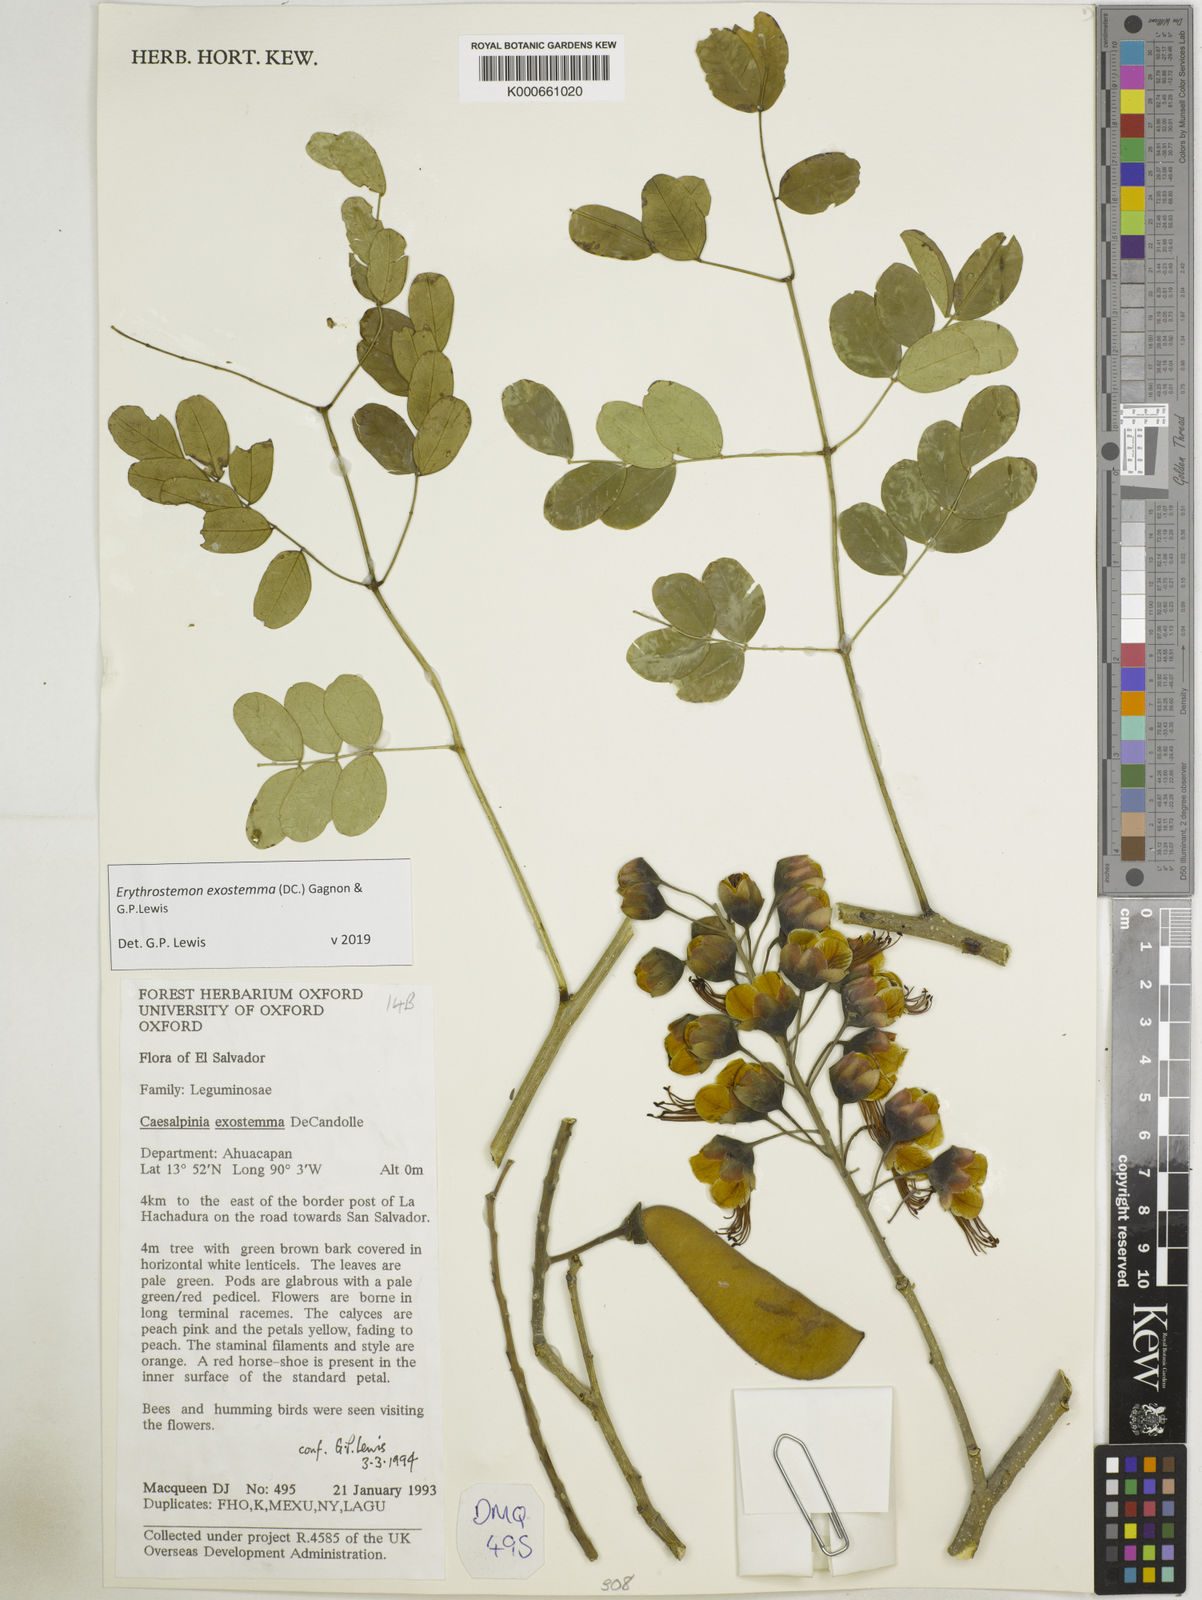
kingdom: Plantae
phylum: Tracheophyta
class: Magnoliopsida
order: Fabales
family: Fabaceae
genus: Erythrostemon
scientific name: Erythrostemon exostemma
